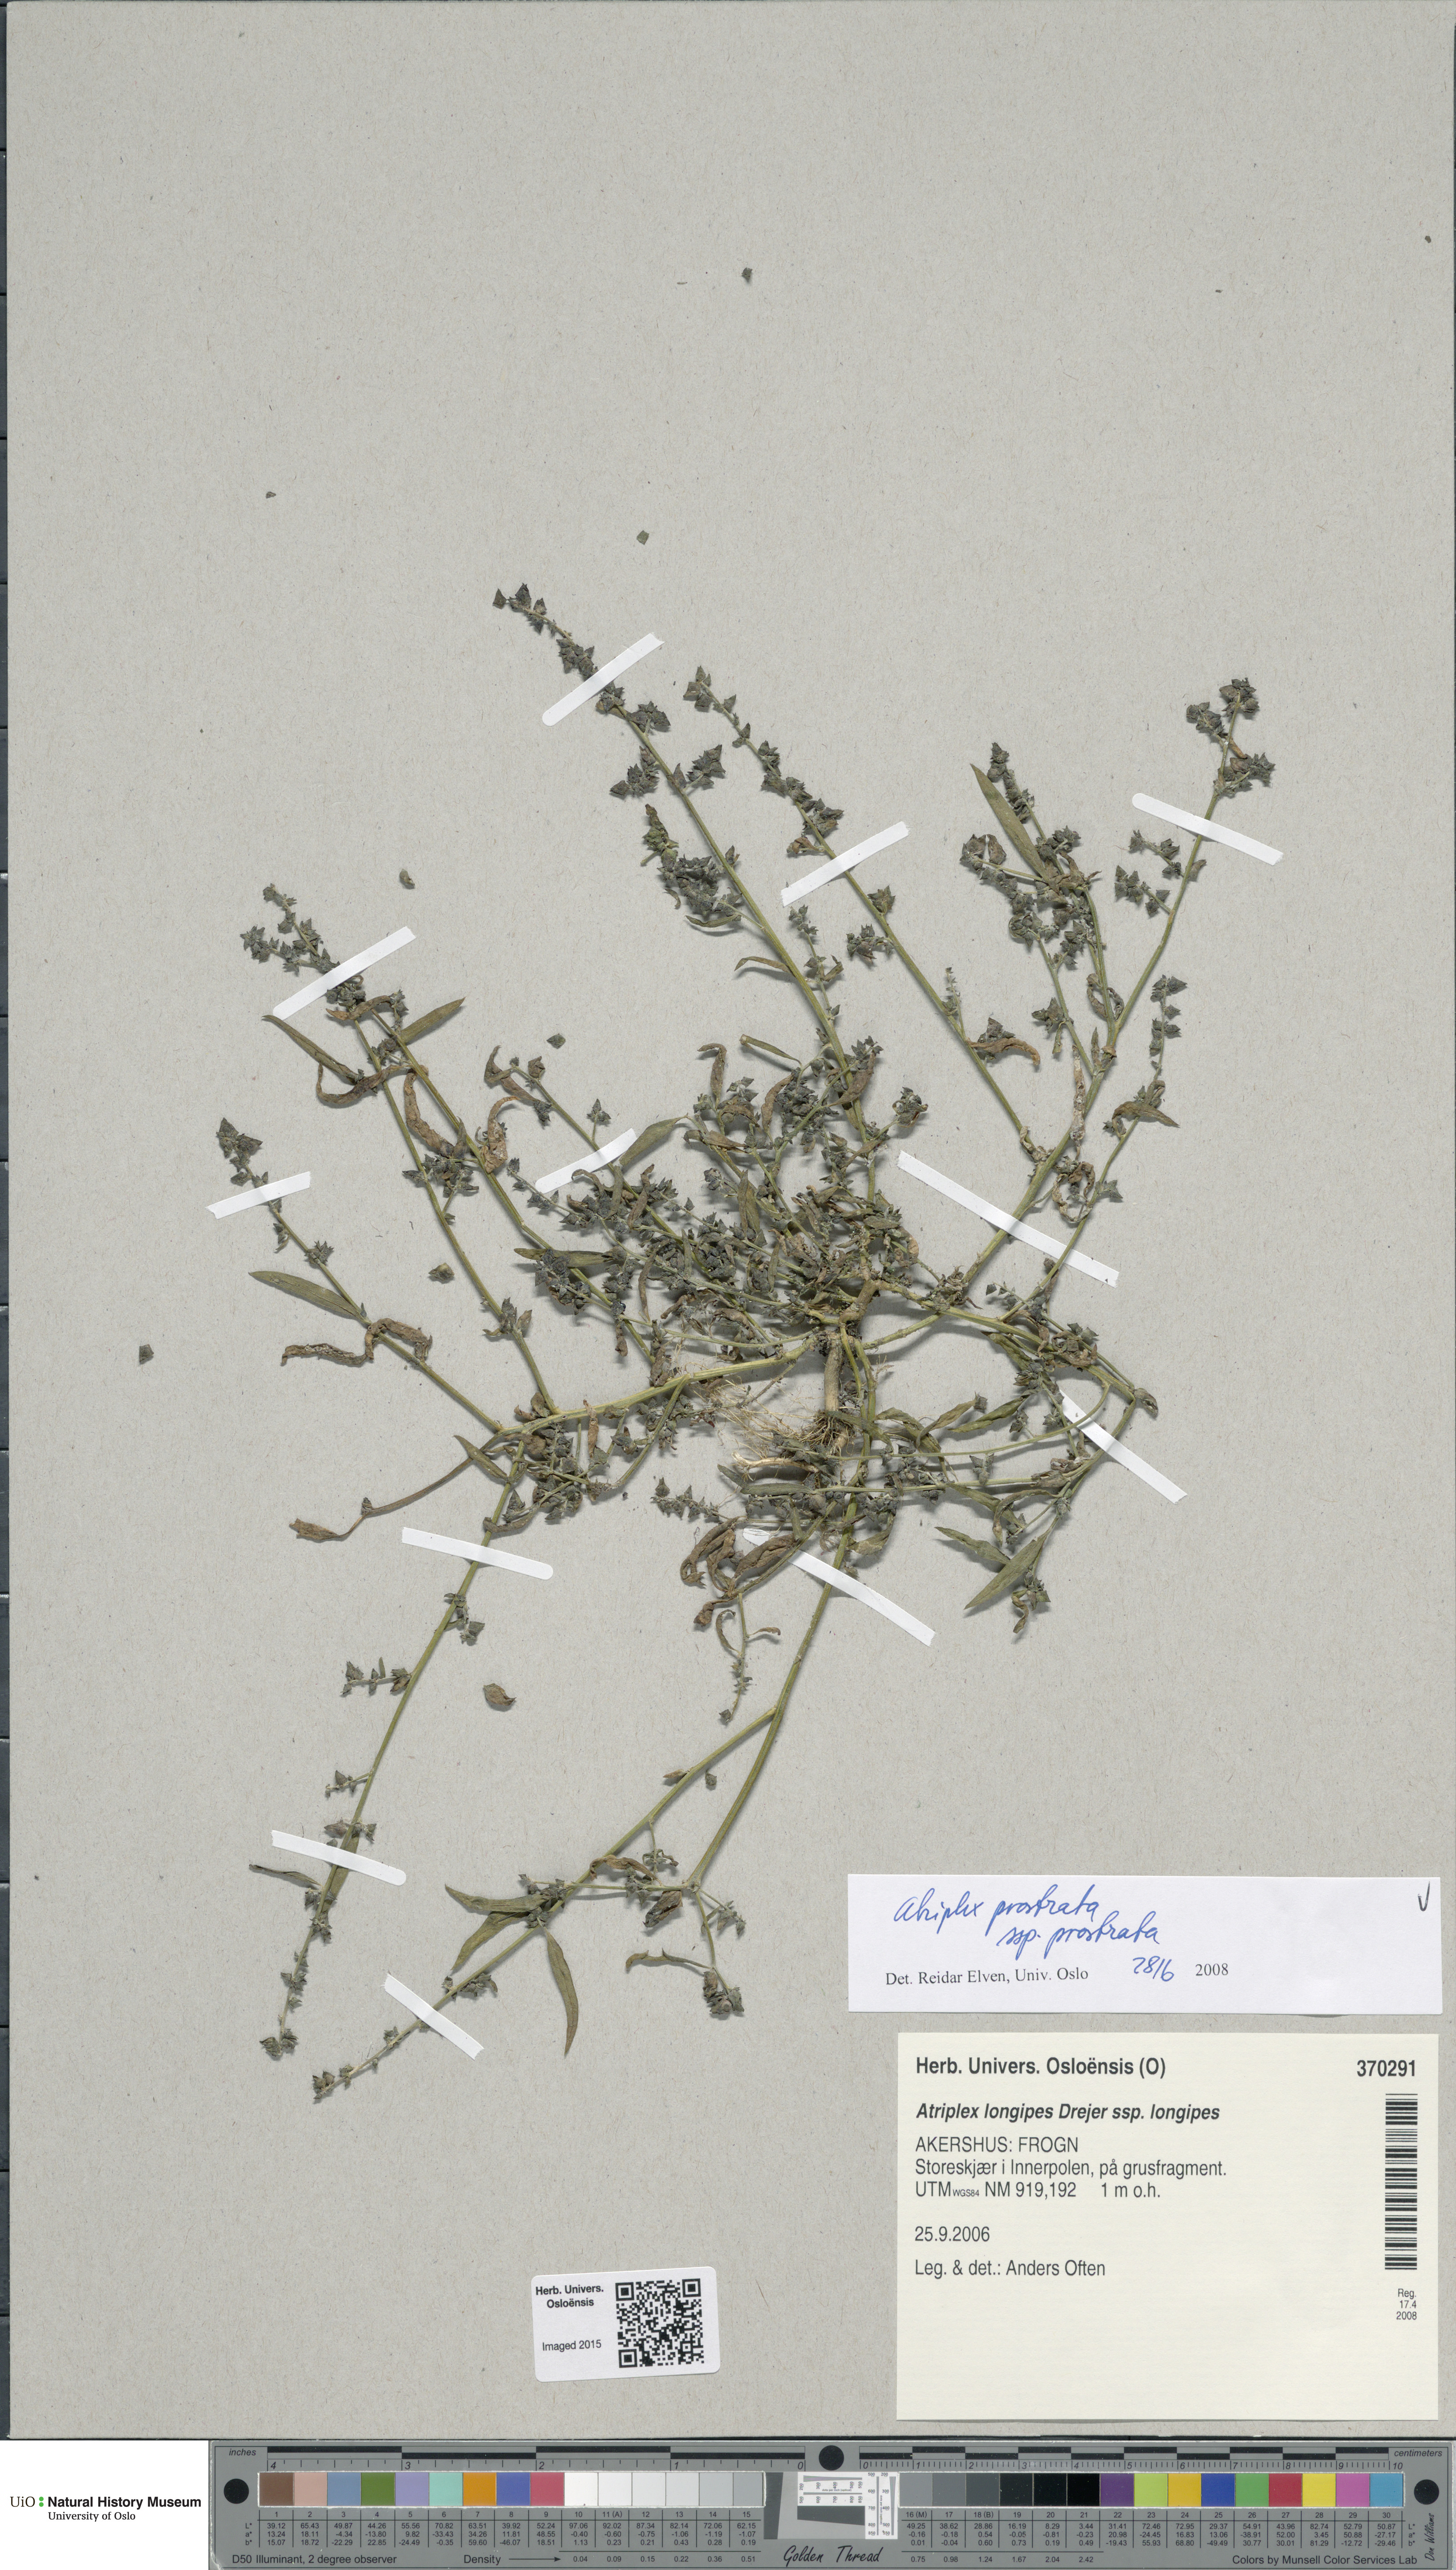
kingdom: Plantae
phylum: Tracheophyta
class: Magnoliopsida
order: Caryophyllales
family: Amaranthaceae
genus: Atriplex
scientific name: Atriplex prostrata
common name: Spear-leaved orache
